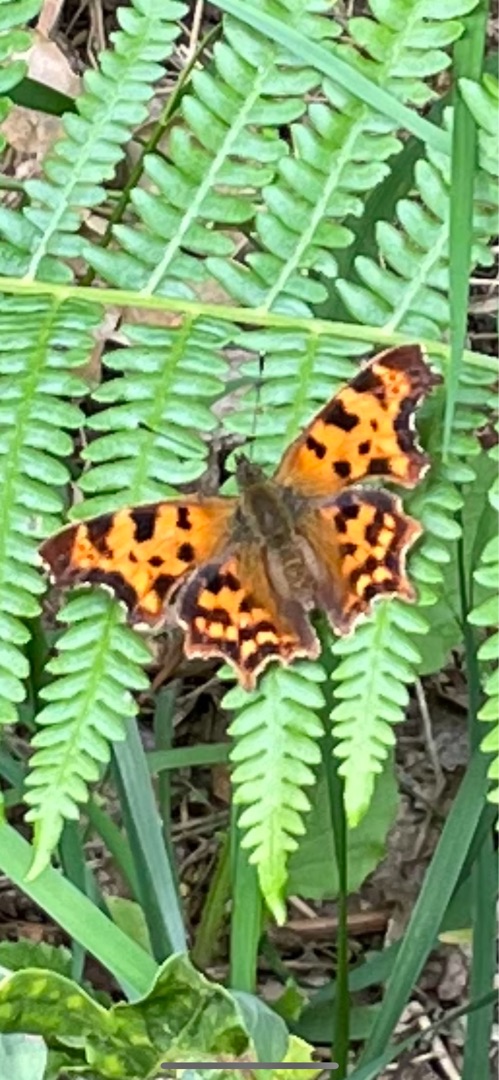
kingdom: Animalia
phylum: Arthropoda
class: Insecta
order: Lepidoptera
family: Nymphalidae
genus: Polygonia
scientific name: Polygonia c-album
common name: Det hvide C
